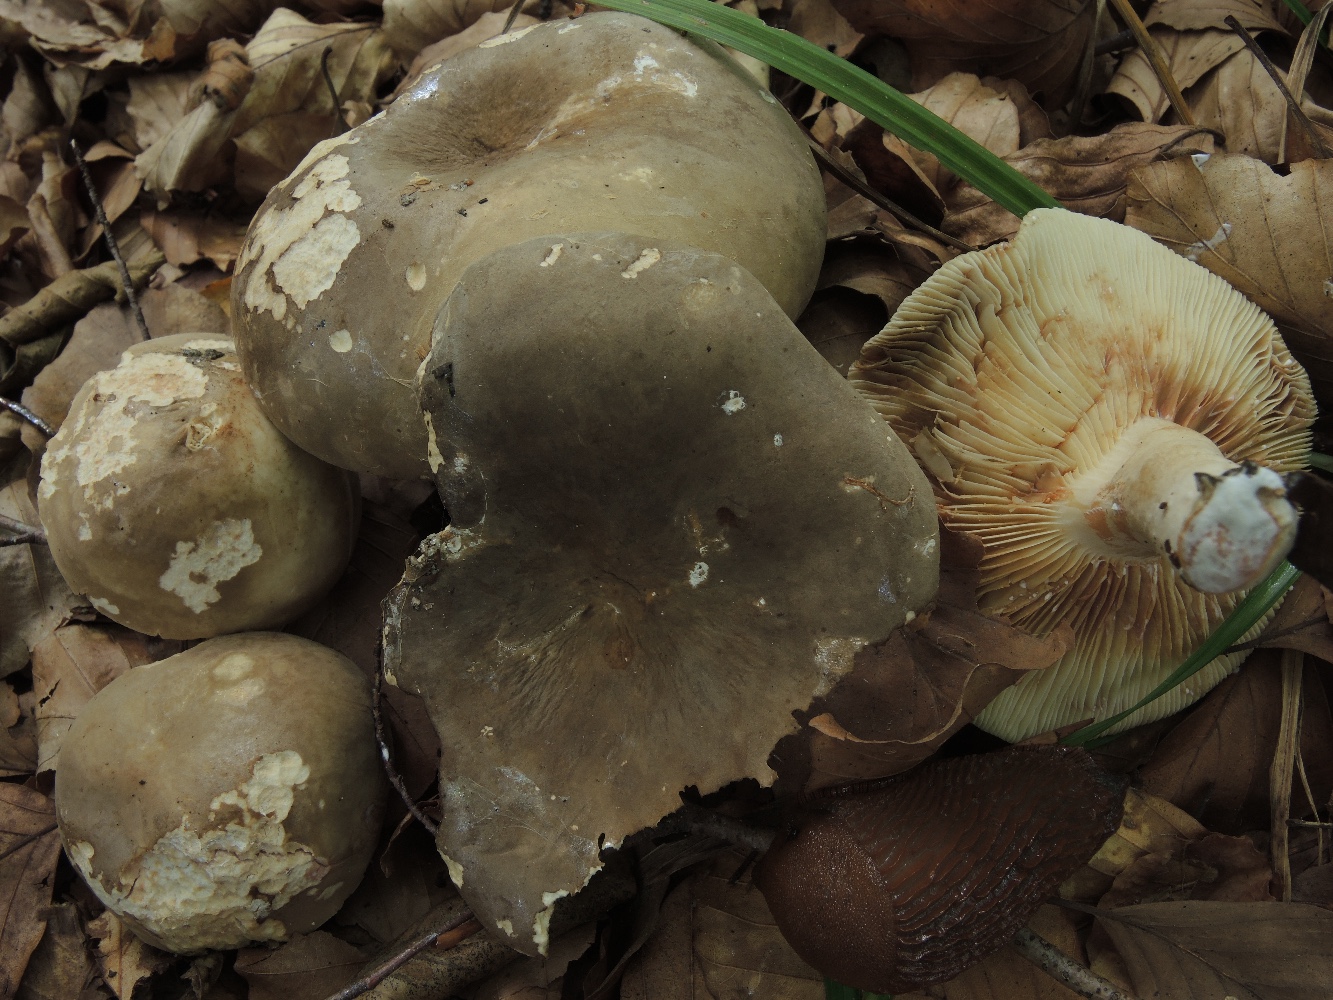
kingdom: Fungi
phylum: Basidiomycota
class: Agaricomycetes
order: Russulales
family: Russulaceae
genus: Lactarius
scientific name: Lactarius pterosporus
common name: vingesporet mælkehat
